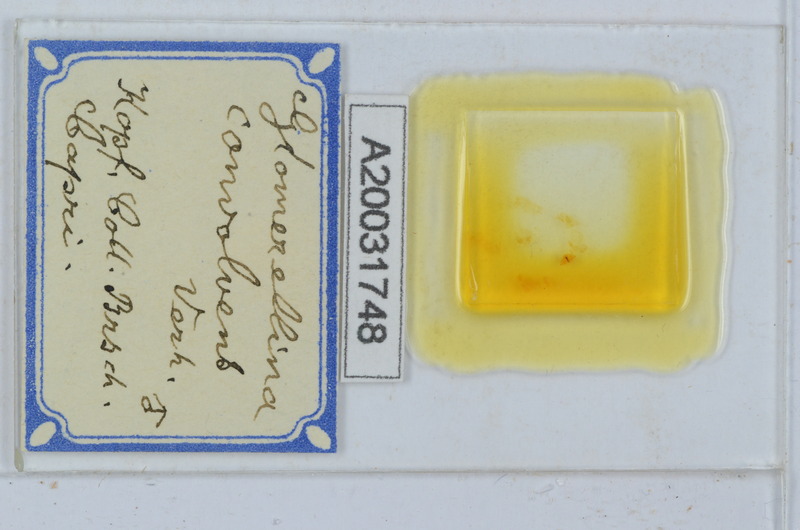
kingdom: Animalia
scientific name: Animalia
